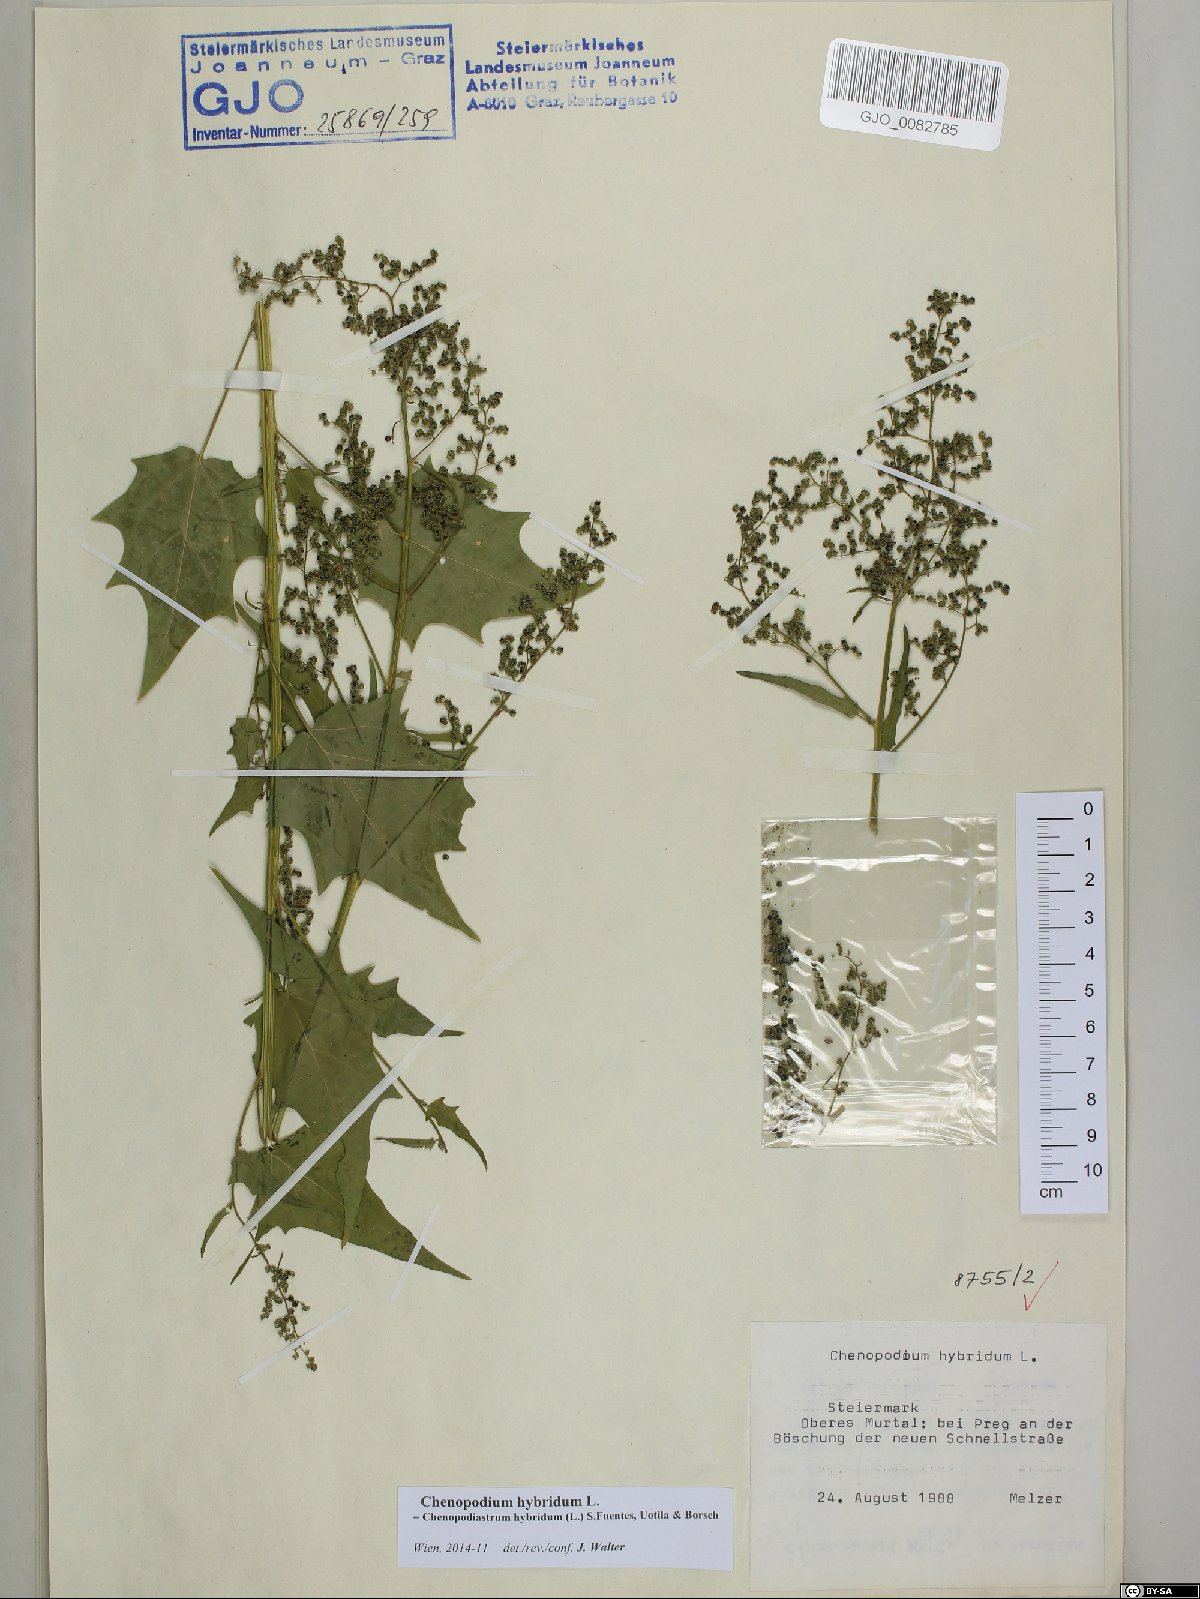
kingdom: Plantae
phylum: Tracheophyta
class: Magnoliopsida
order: Caryophyllales
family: Amaranthaceae
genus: Chenopodiastrum
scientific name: Chenopodiastrum hybridum
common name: Mapleleaf goosefoot
